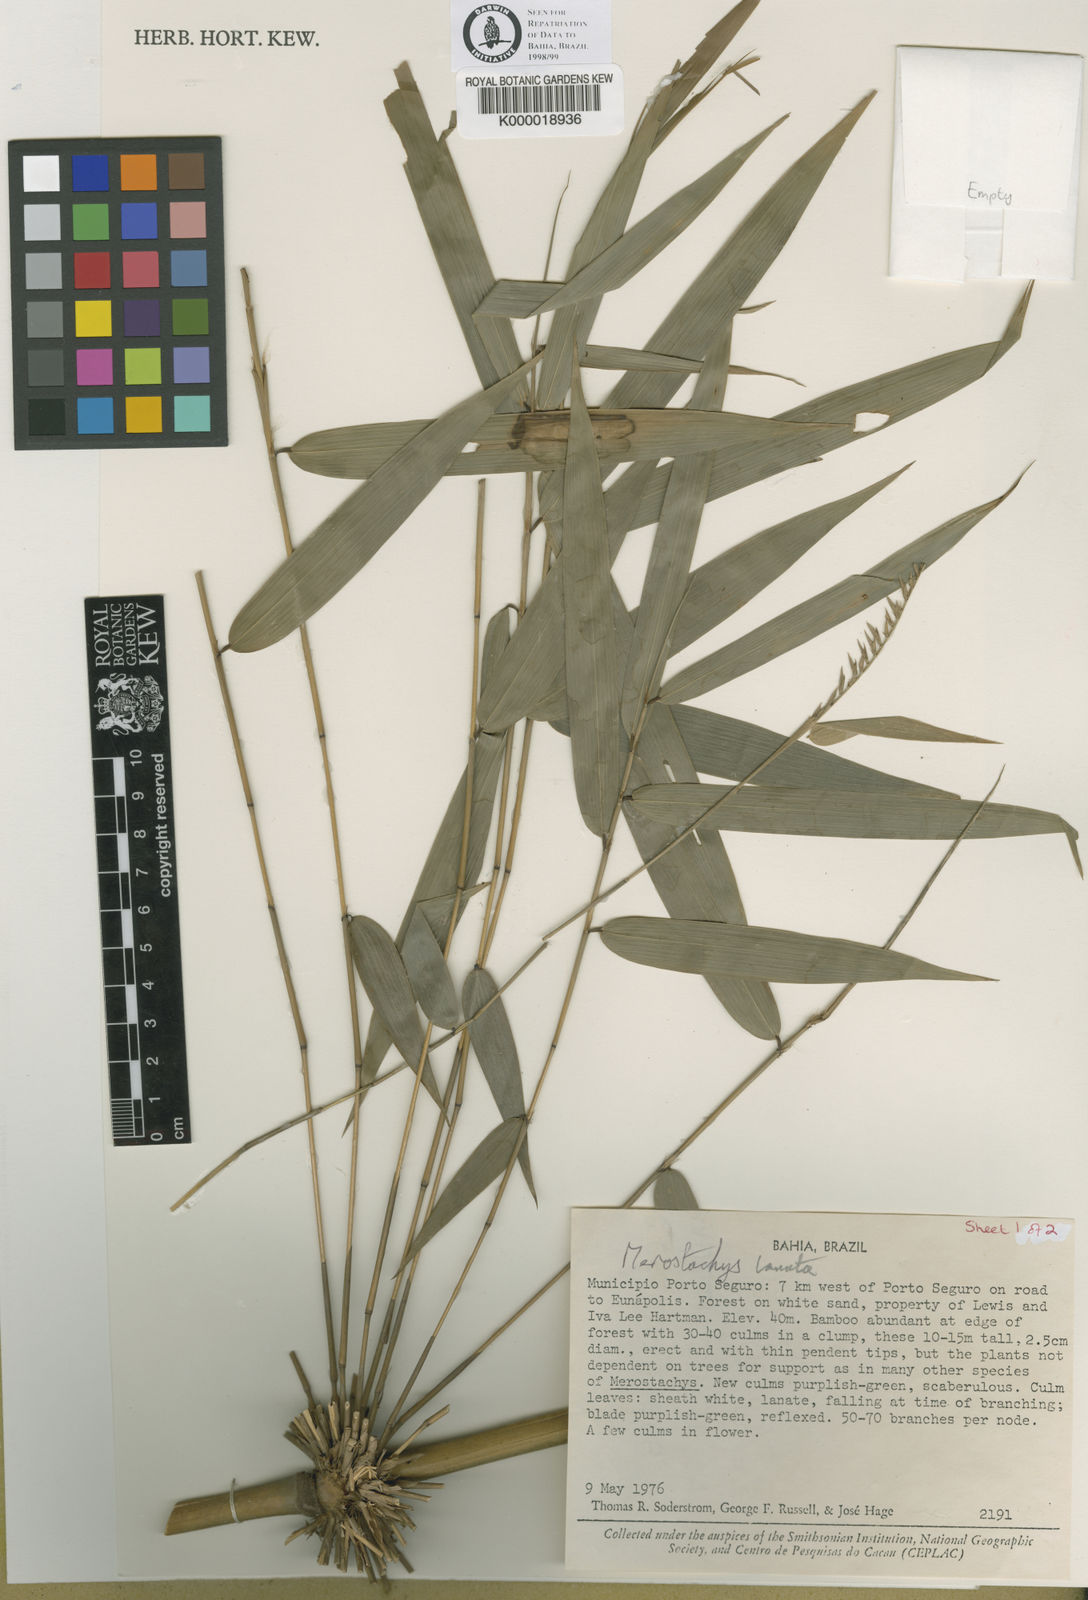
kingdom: Plantae
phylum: Tracheophyta
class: Liliopsida
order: Poales
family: Poaceae
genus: Merostachys
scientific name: Merostachys lanata
